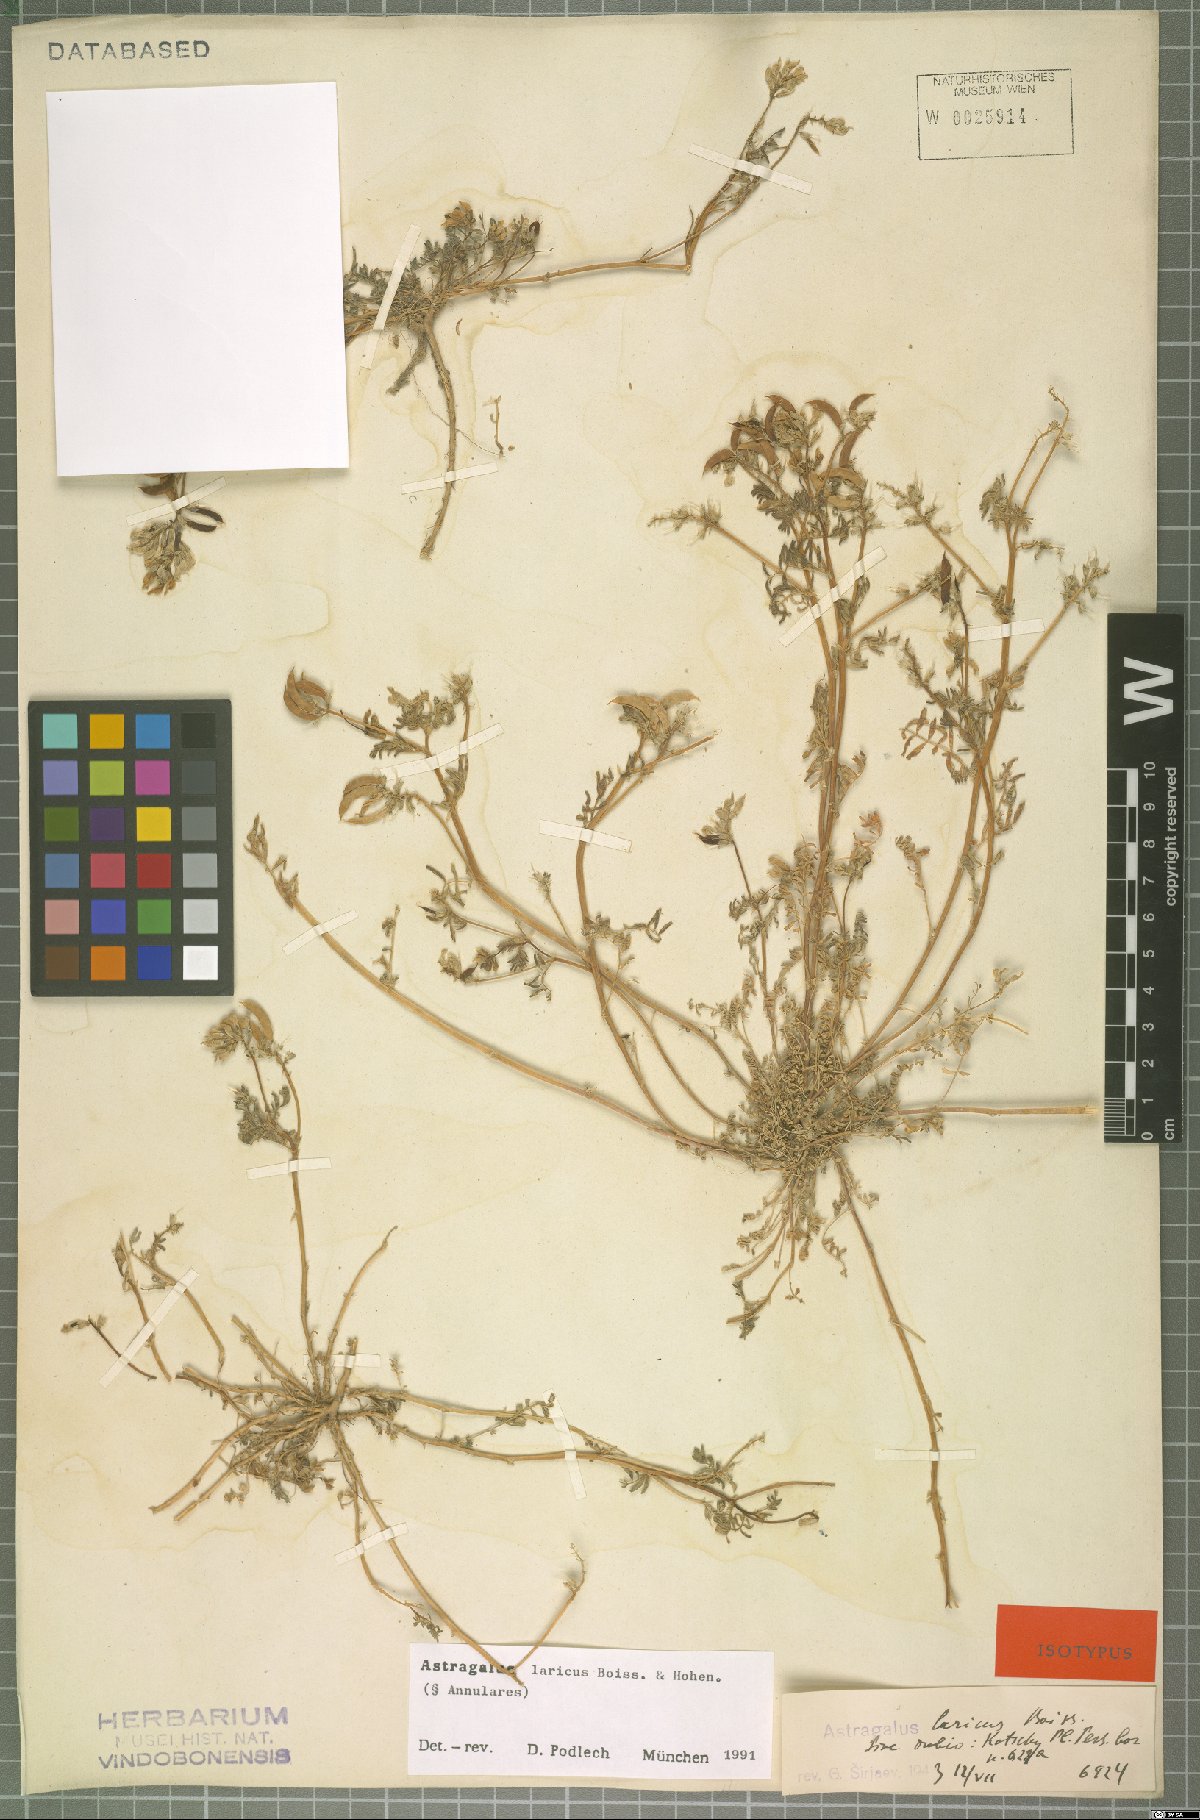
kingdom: Plantae
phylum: Tracheophyta
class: Magnoliopsida
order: Fabales
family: Fabaceae
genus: Astragalus
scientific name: Astragalus laricus
